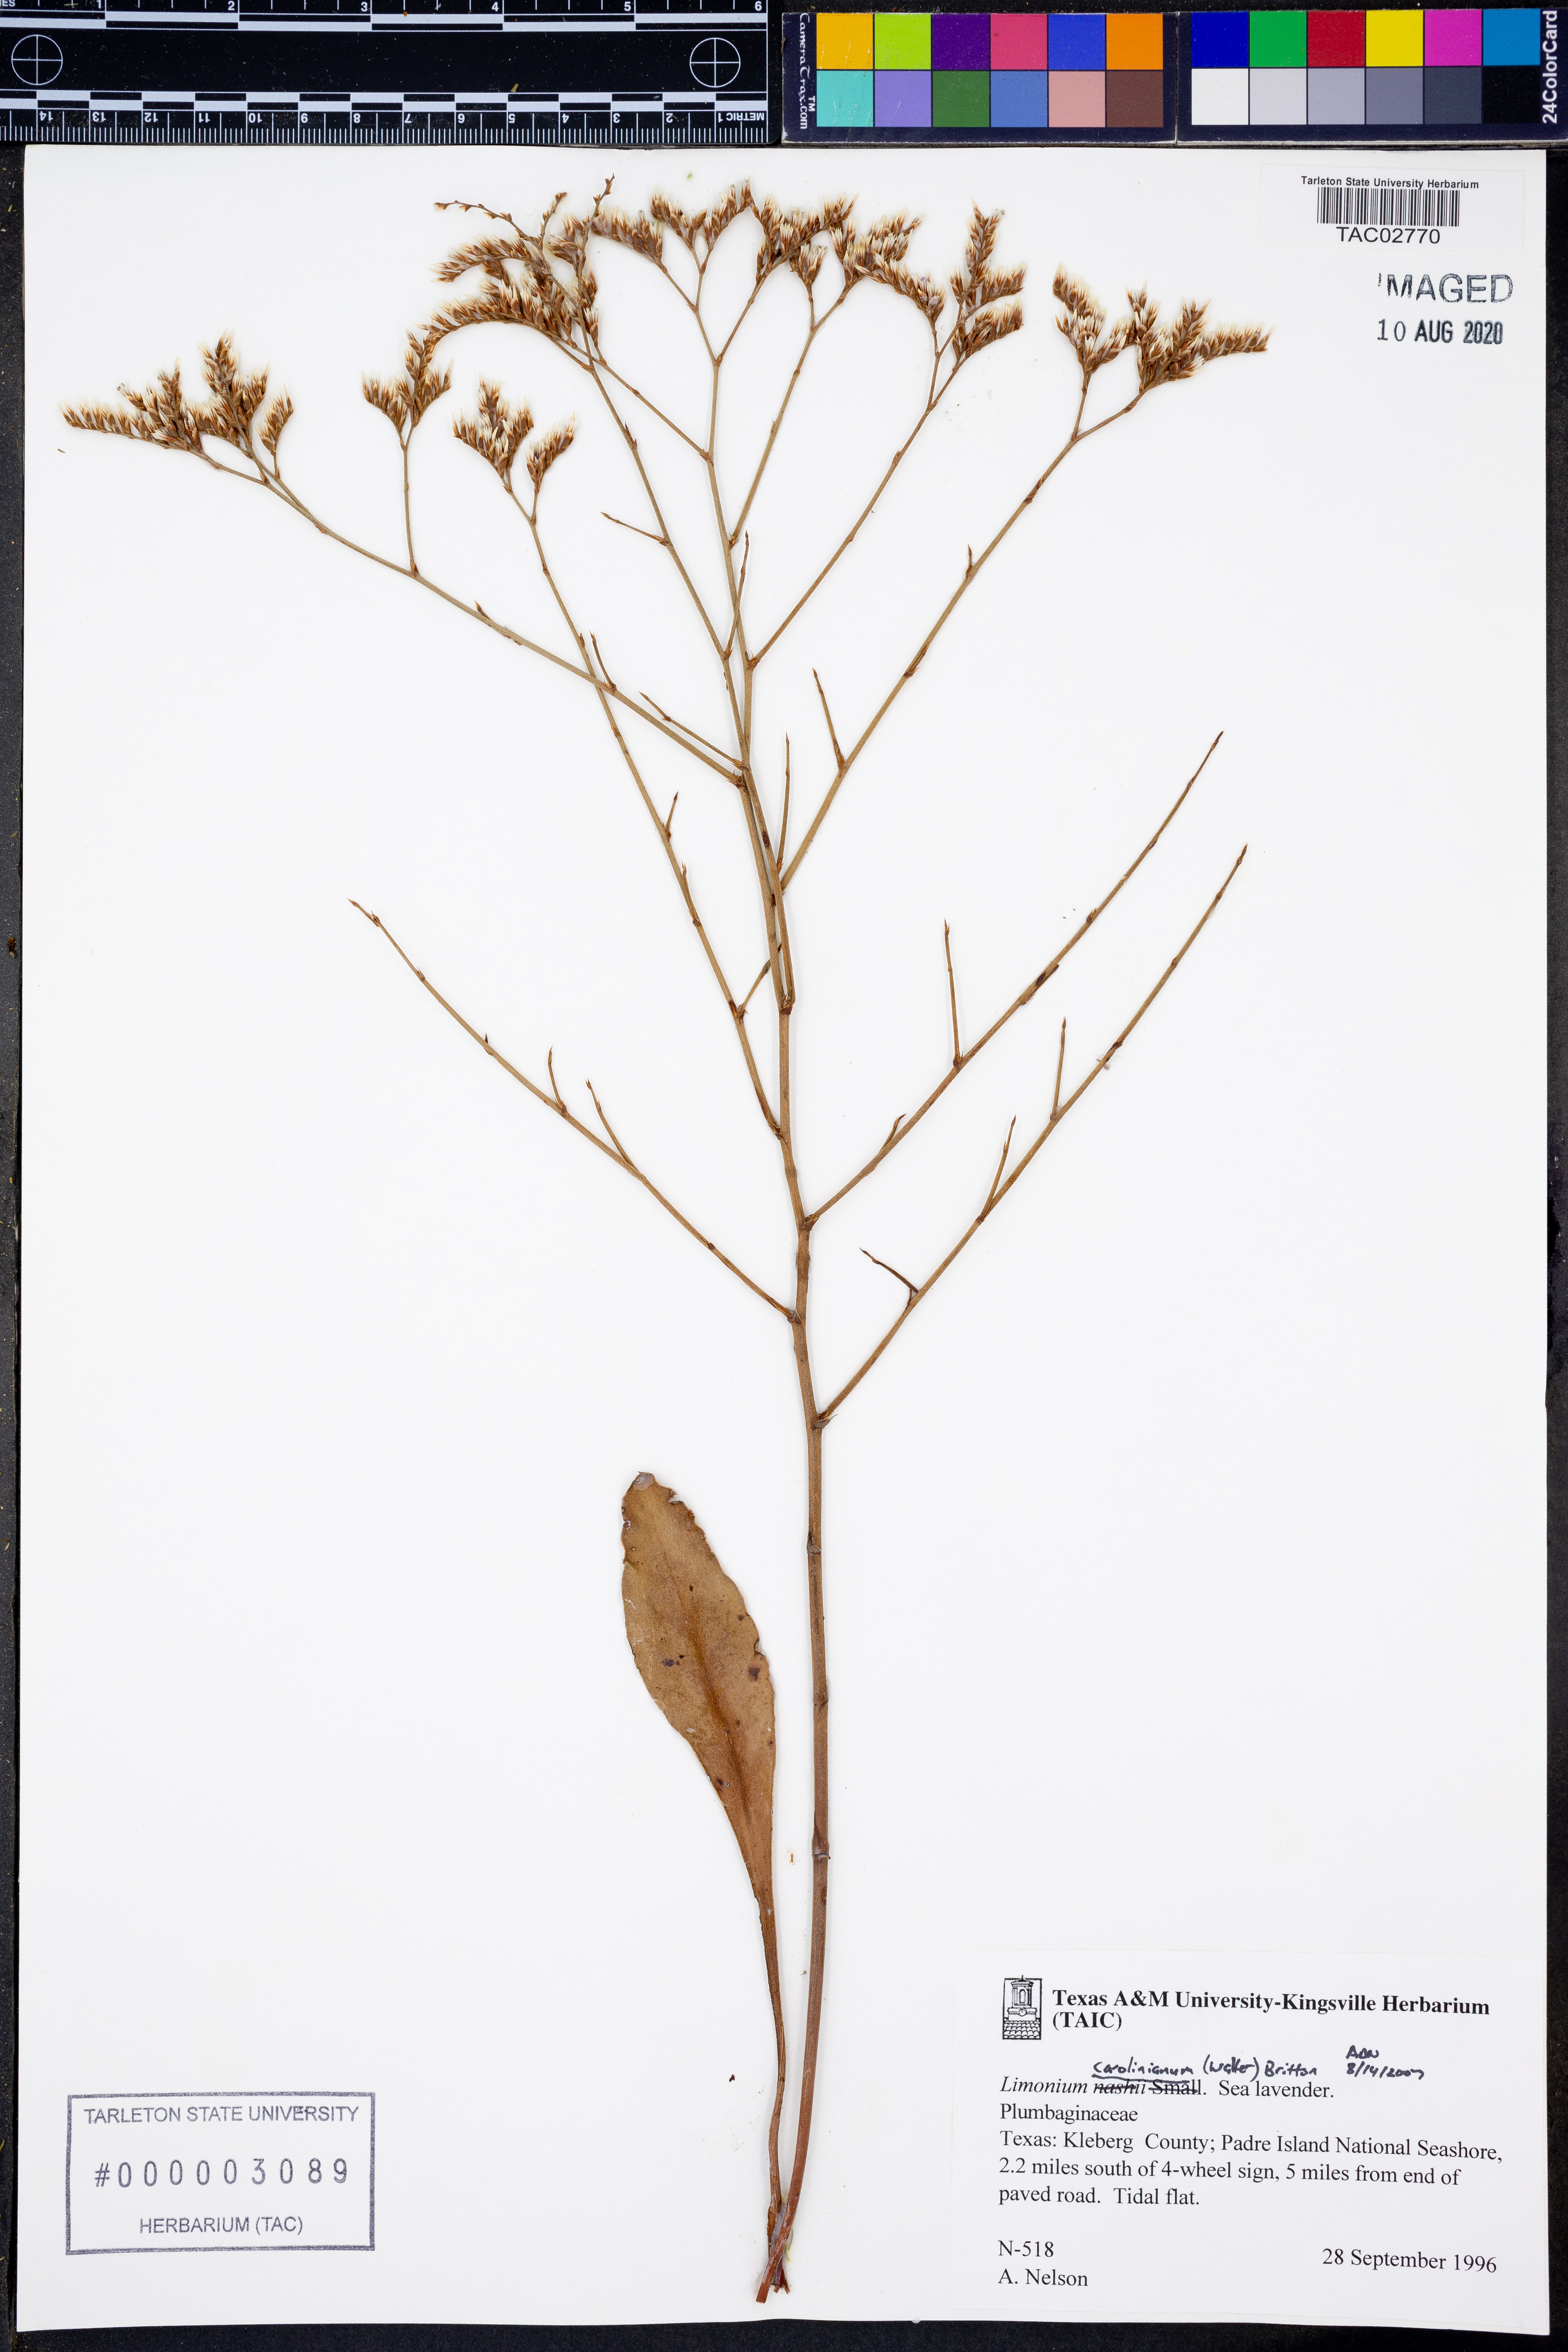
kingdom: Plantae
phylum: Tracheophyta
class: Magnoliopsida
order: Caryophyllales
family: Plumbaginaceae
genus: Limonium
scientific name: Limonium carolinianum
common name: Carolina sea lavender
